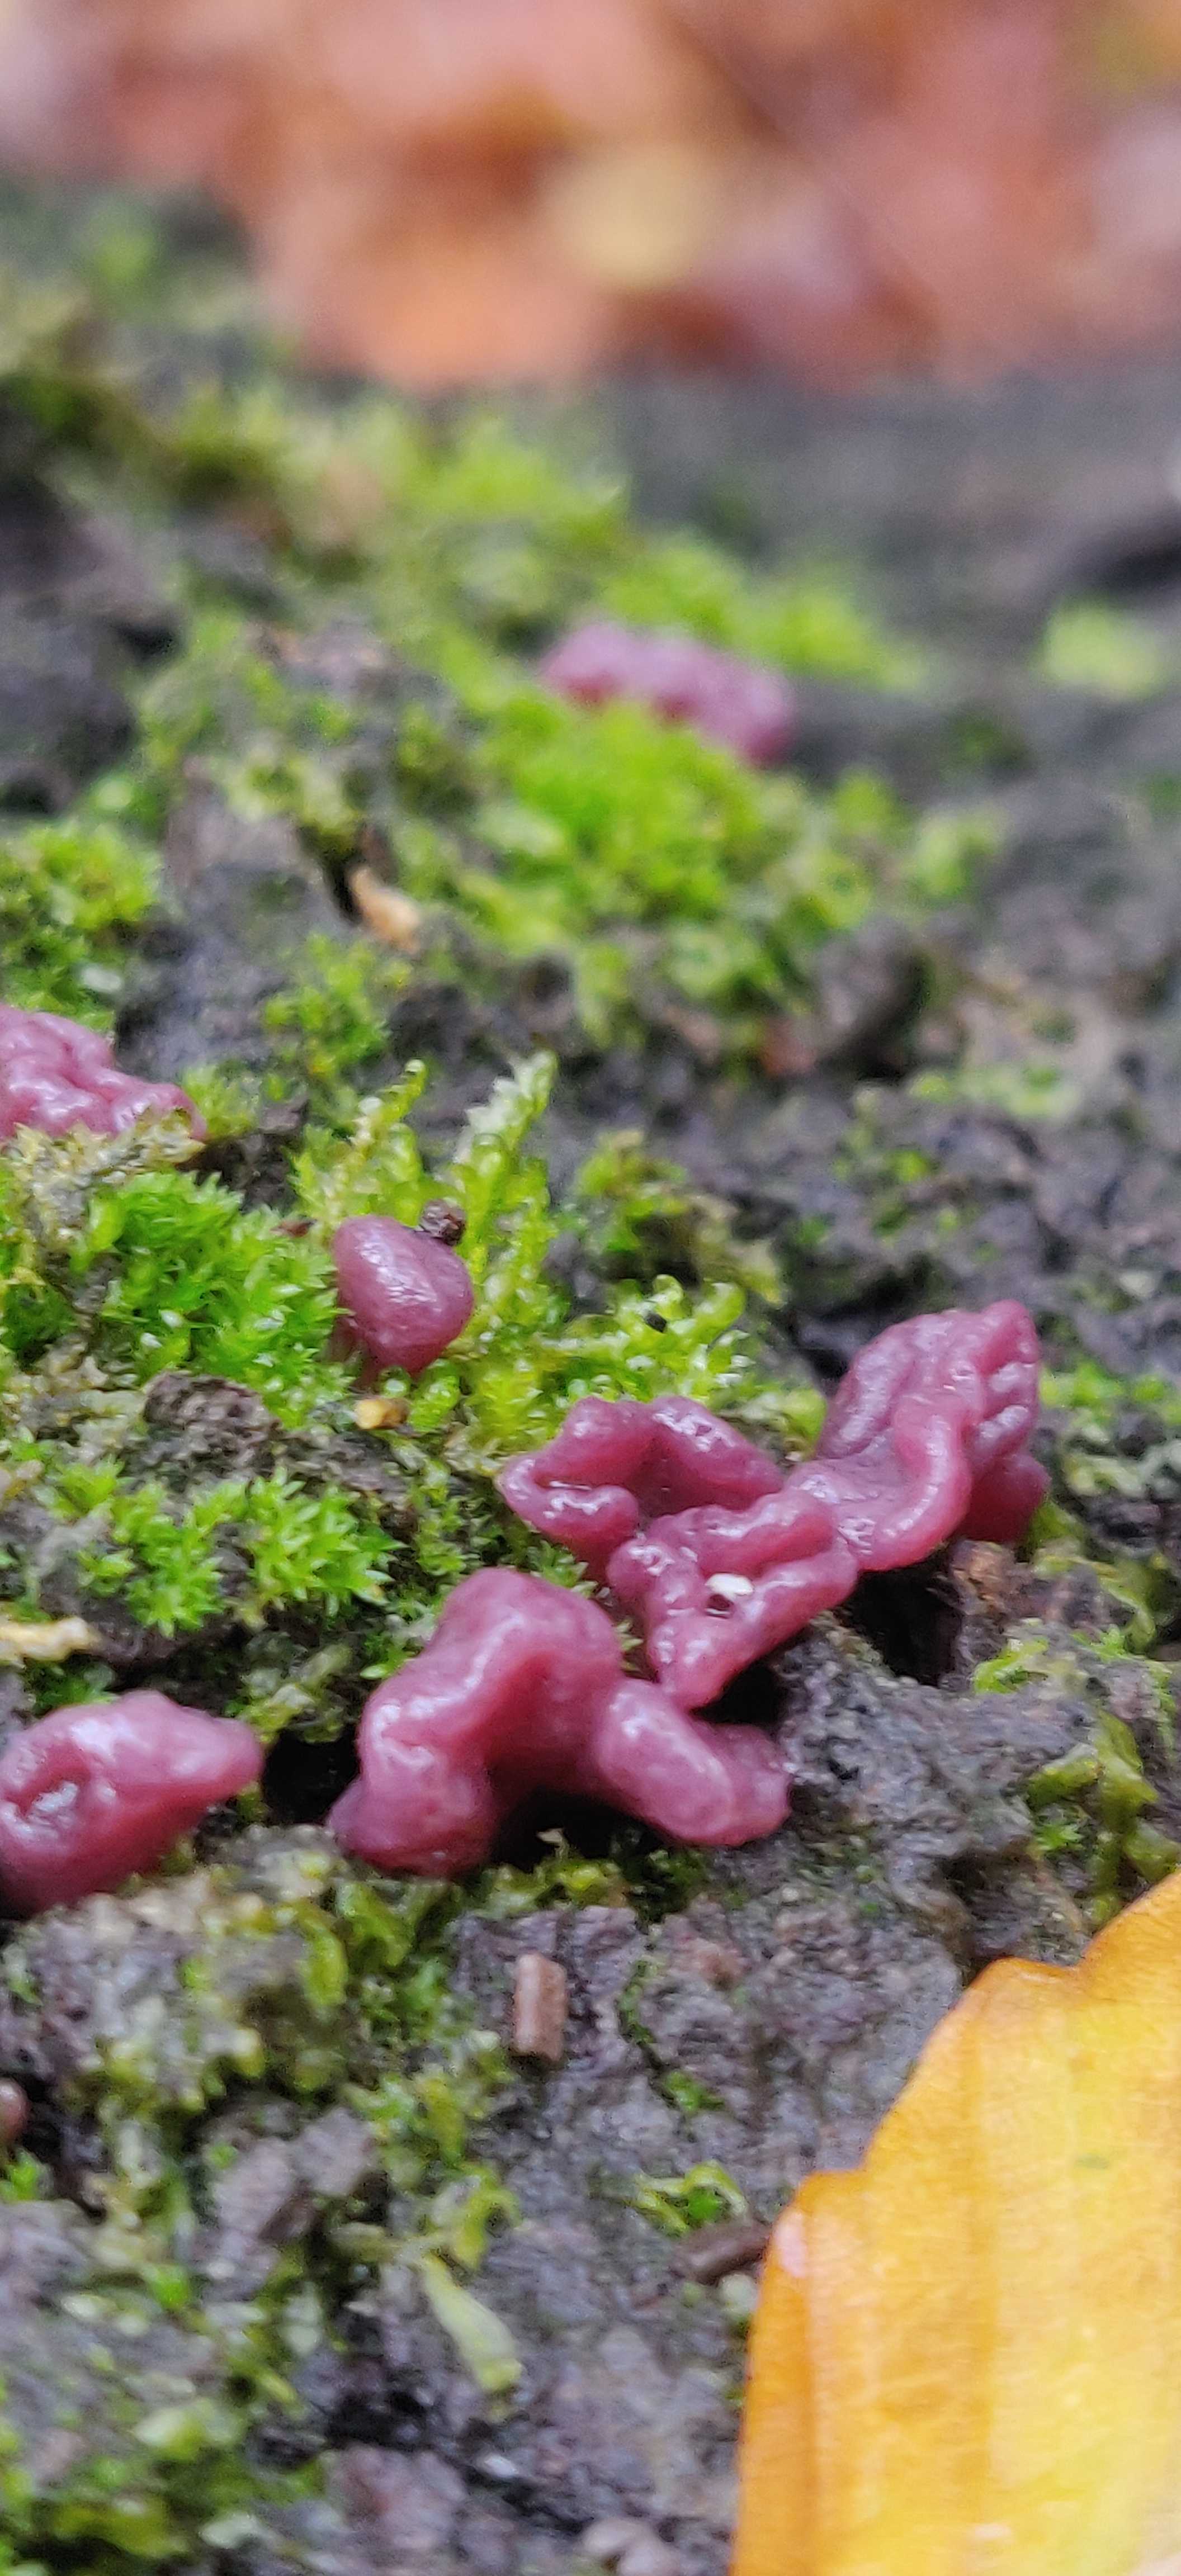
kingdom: Fungi
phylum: Ascomycota
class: Leotiomycetes
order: Helotiales
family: Gelatinodiscaceae
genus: Ascocoryne
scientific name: Ascocoryne sarcoides
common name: rødlilla sejskive
